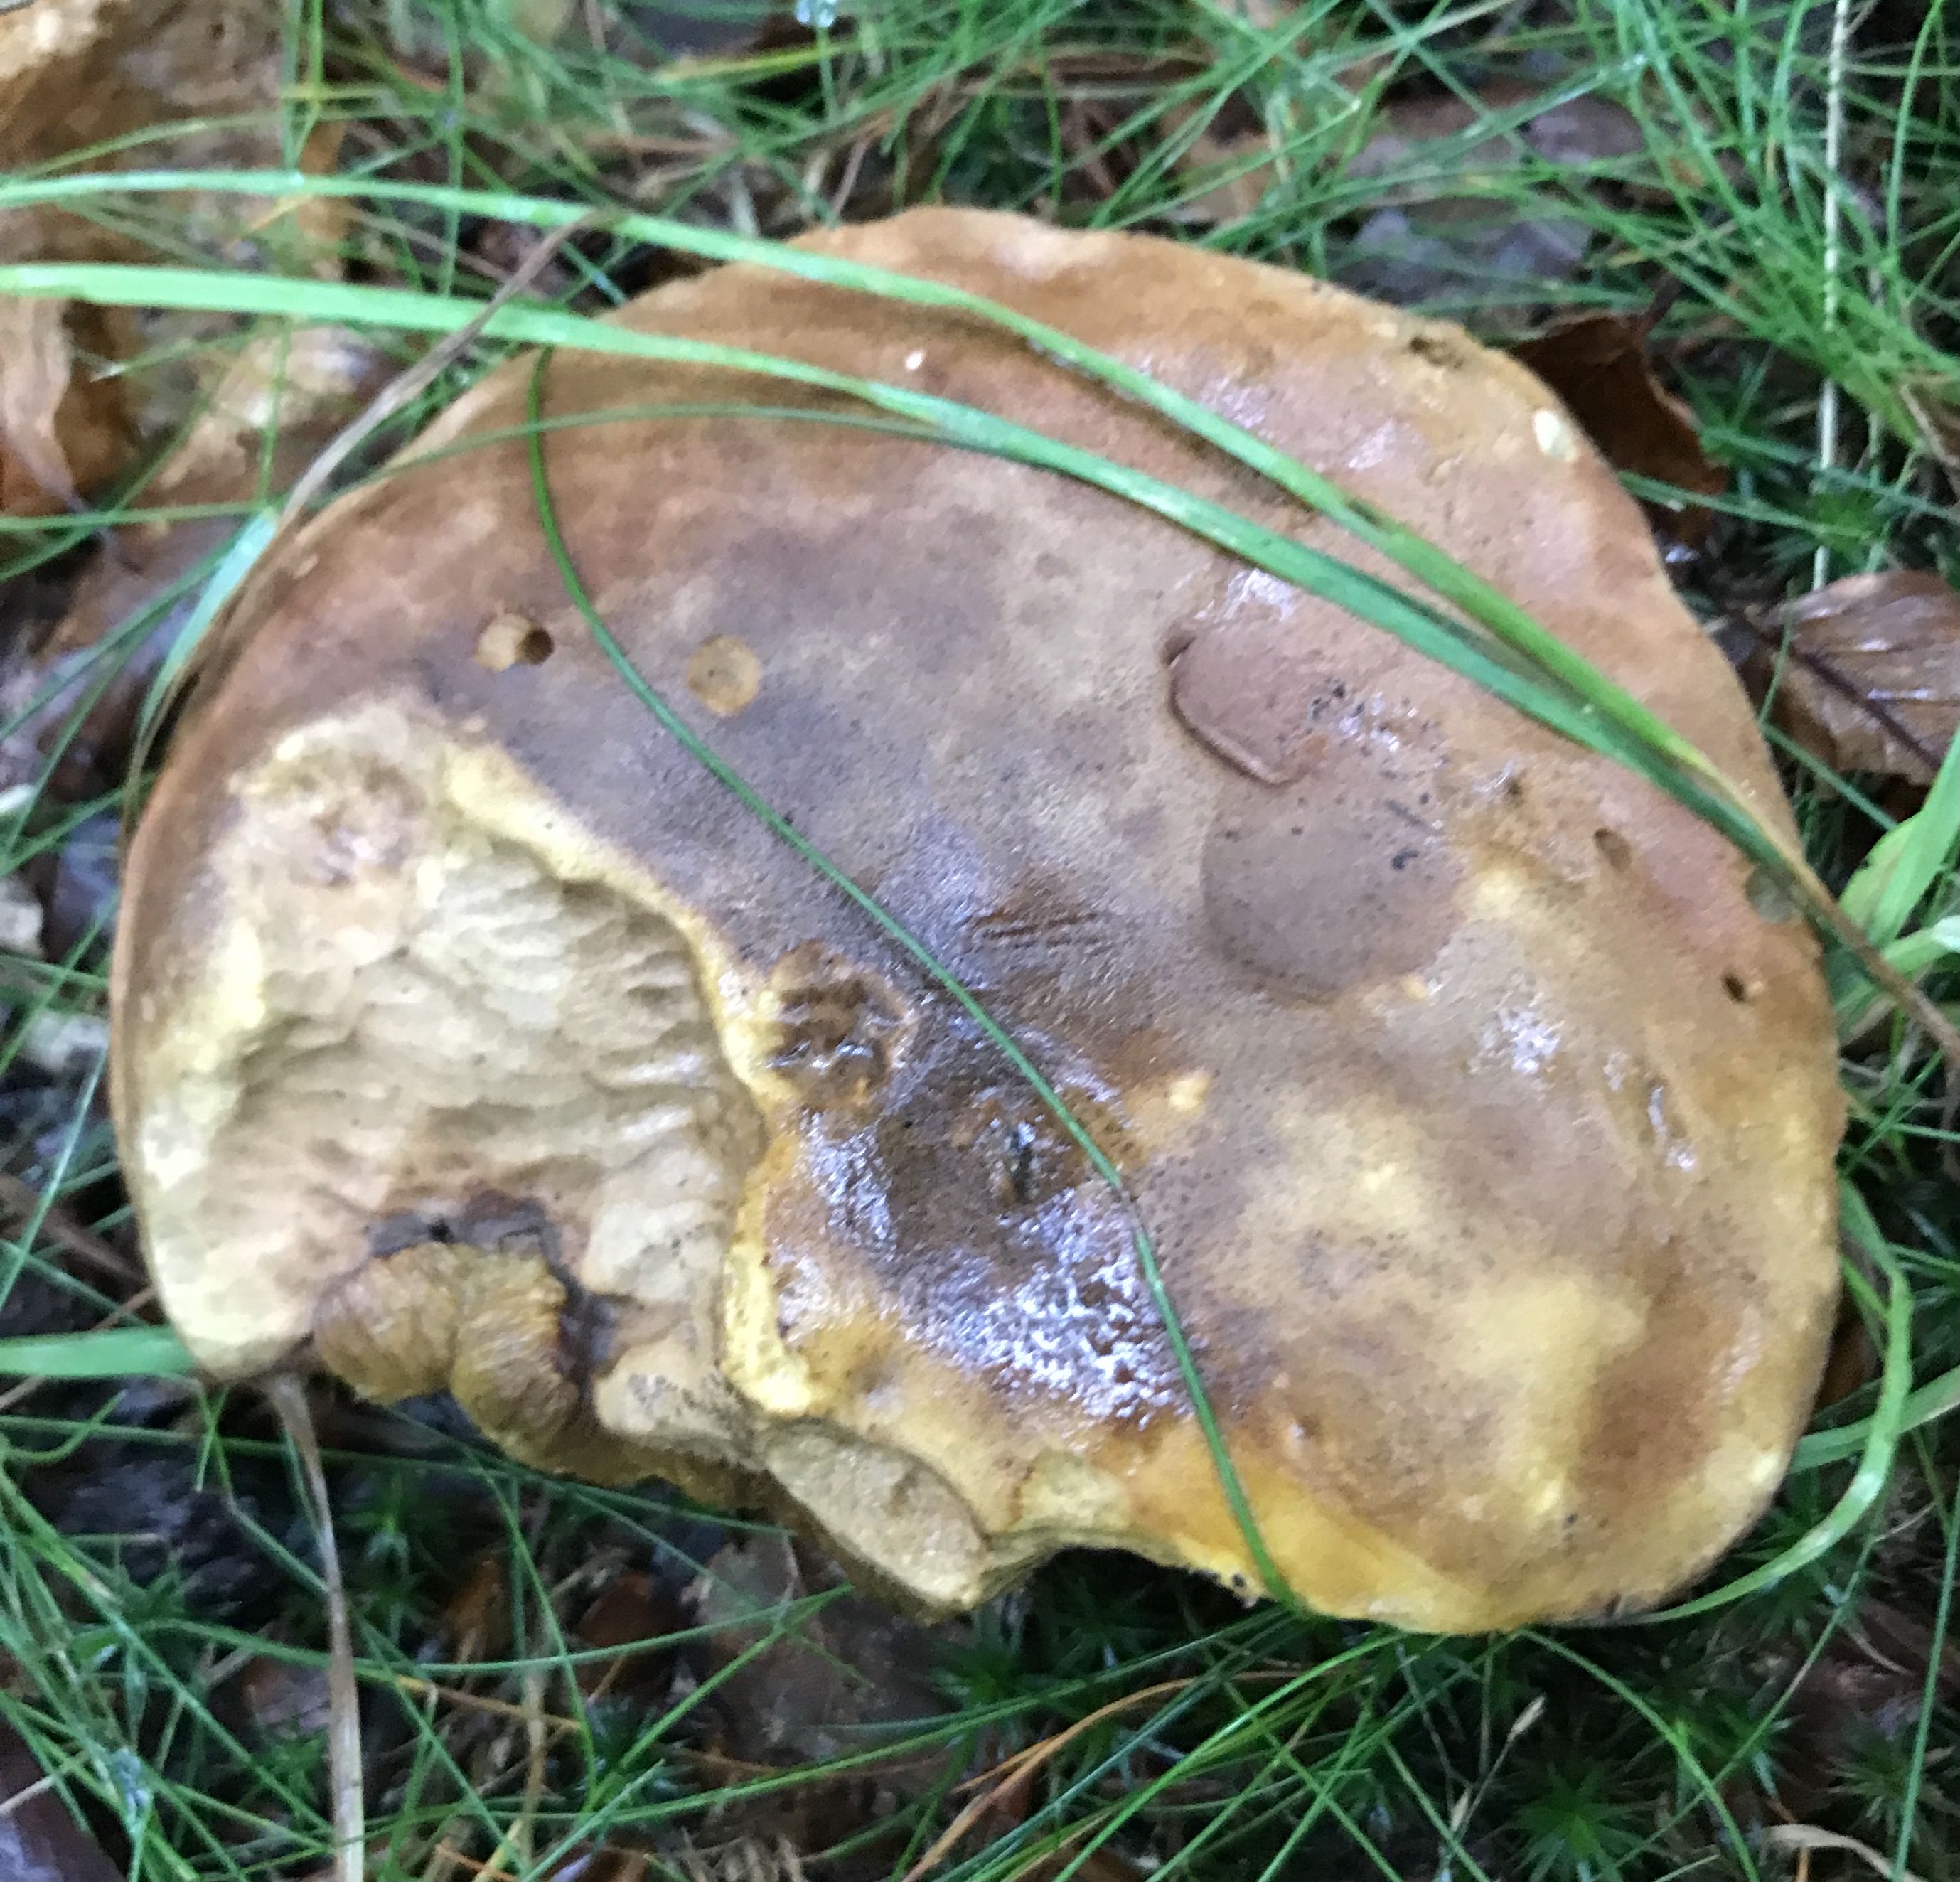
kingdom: Fungi
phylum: Basidiomycota
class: Agaricomycetes
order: Boletales
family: Boletaceae
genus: Butyriboletus
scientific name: Butyriboletus appendiculatus
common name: tenstokket rørhat
